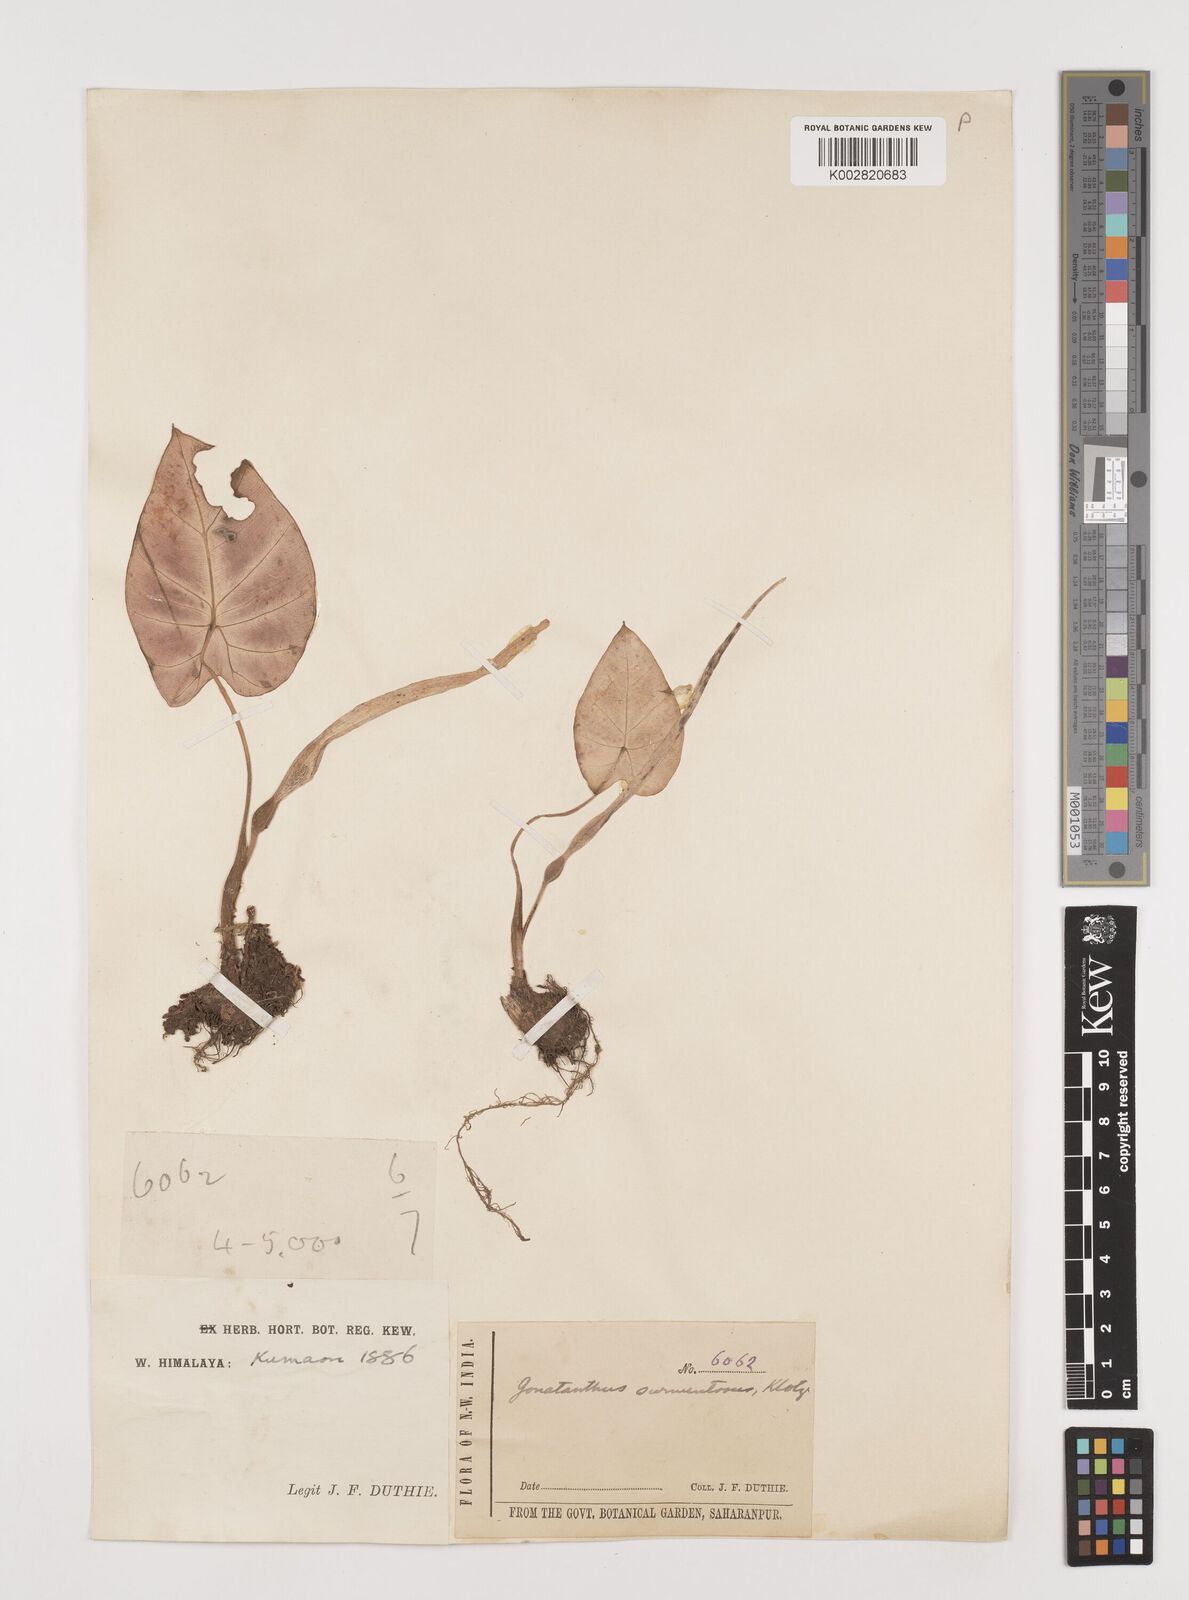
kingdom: Plantae
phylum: Tracheophyta
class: Liliopsida
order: Alismatales
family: Araceae
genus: Remusatia
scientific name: Remusatia pumila
